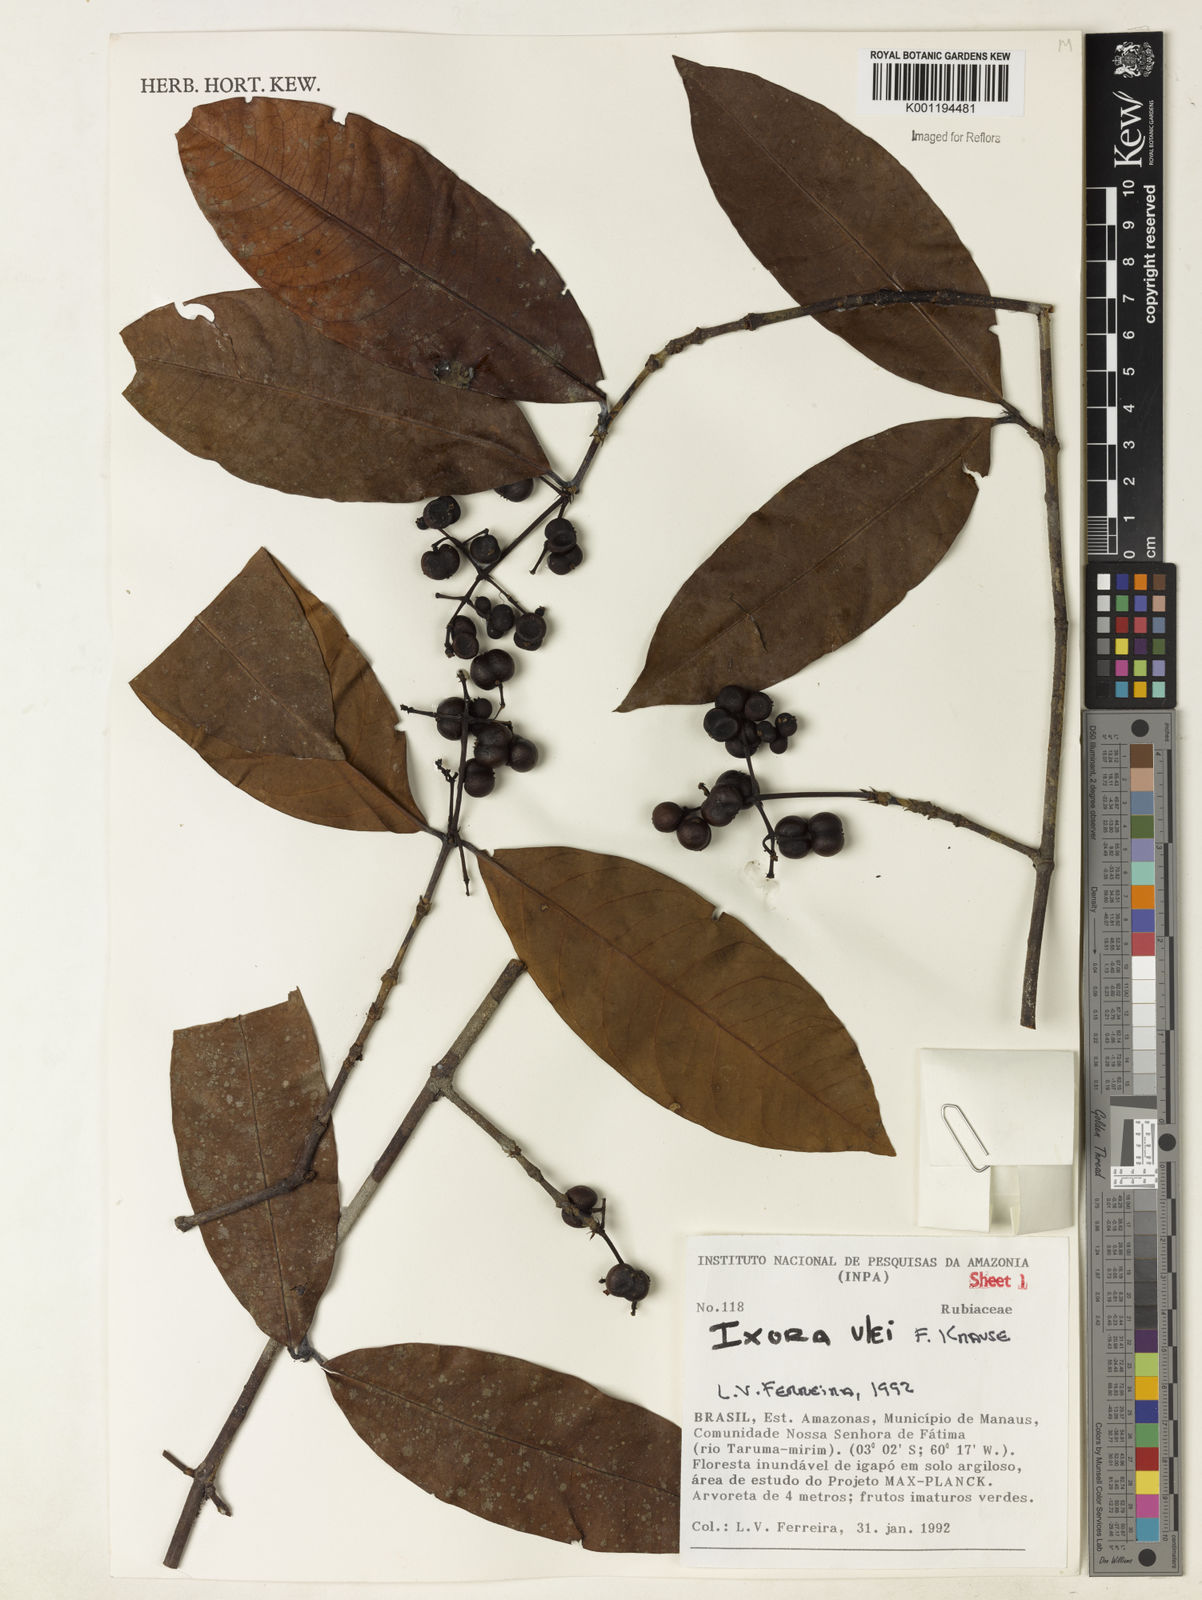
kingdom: Plantae
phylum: Tracheophyta
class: Magnoliopsida
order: Gentianales
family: Rubiaceae
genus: Ixora
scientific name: Ixora sparsifolia
